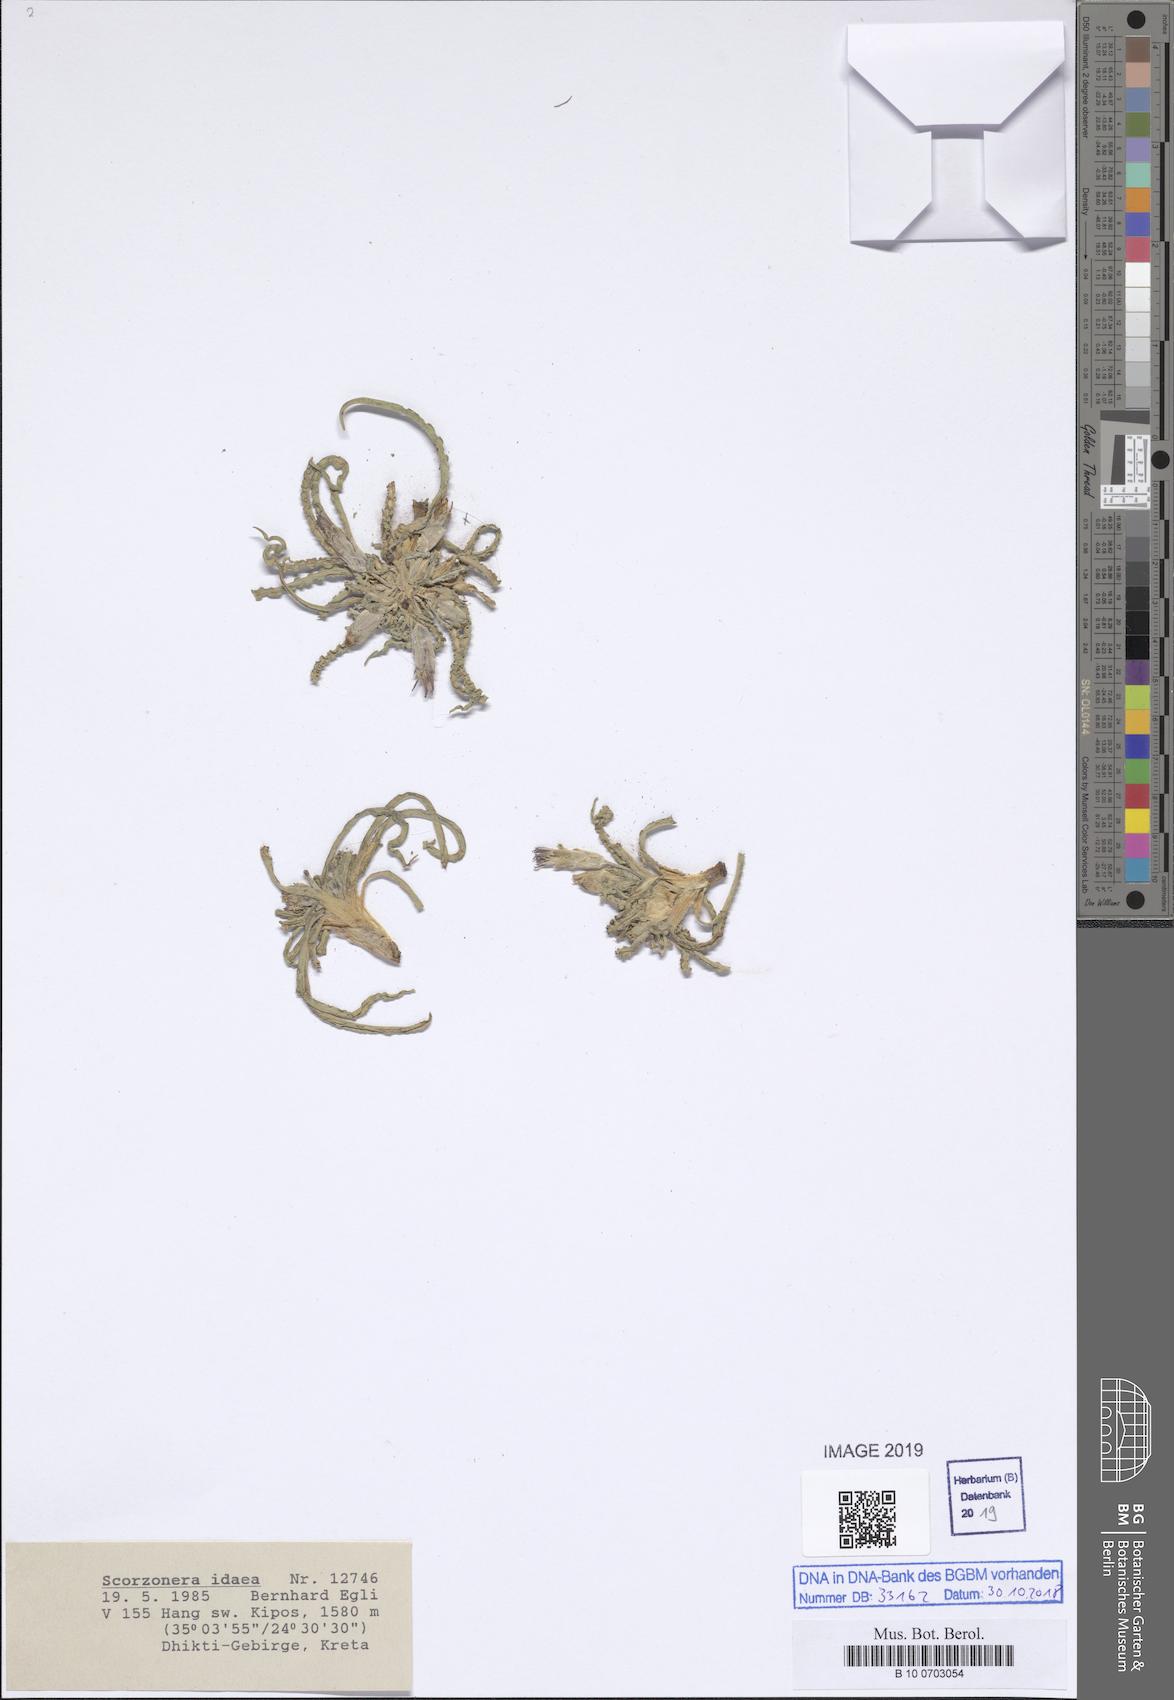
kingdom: Plantae
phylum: Tracheophyta
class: Magnoliopsida
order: Asterales
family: Asteraceae
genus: Pseudopodospermum
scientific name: Pseudopodospermum idaeum
